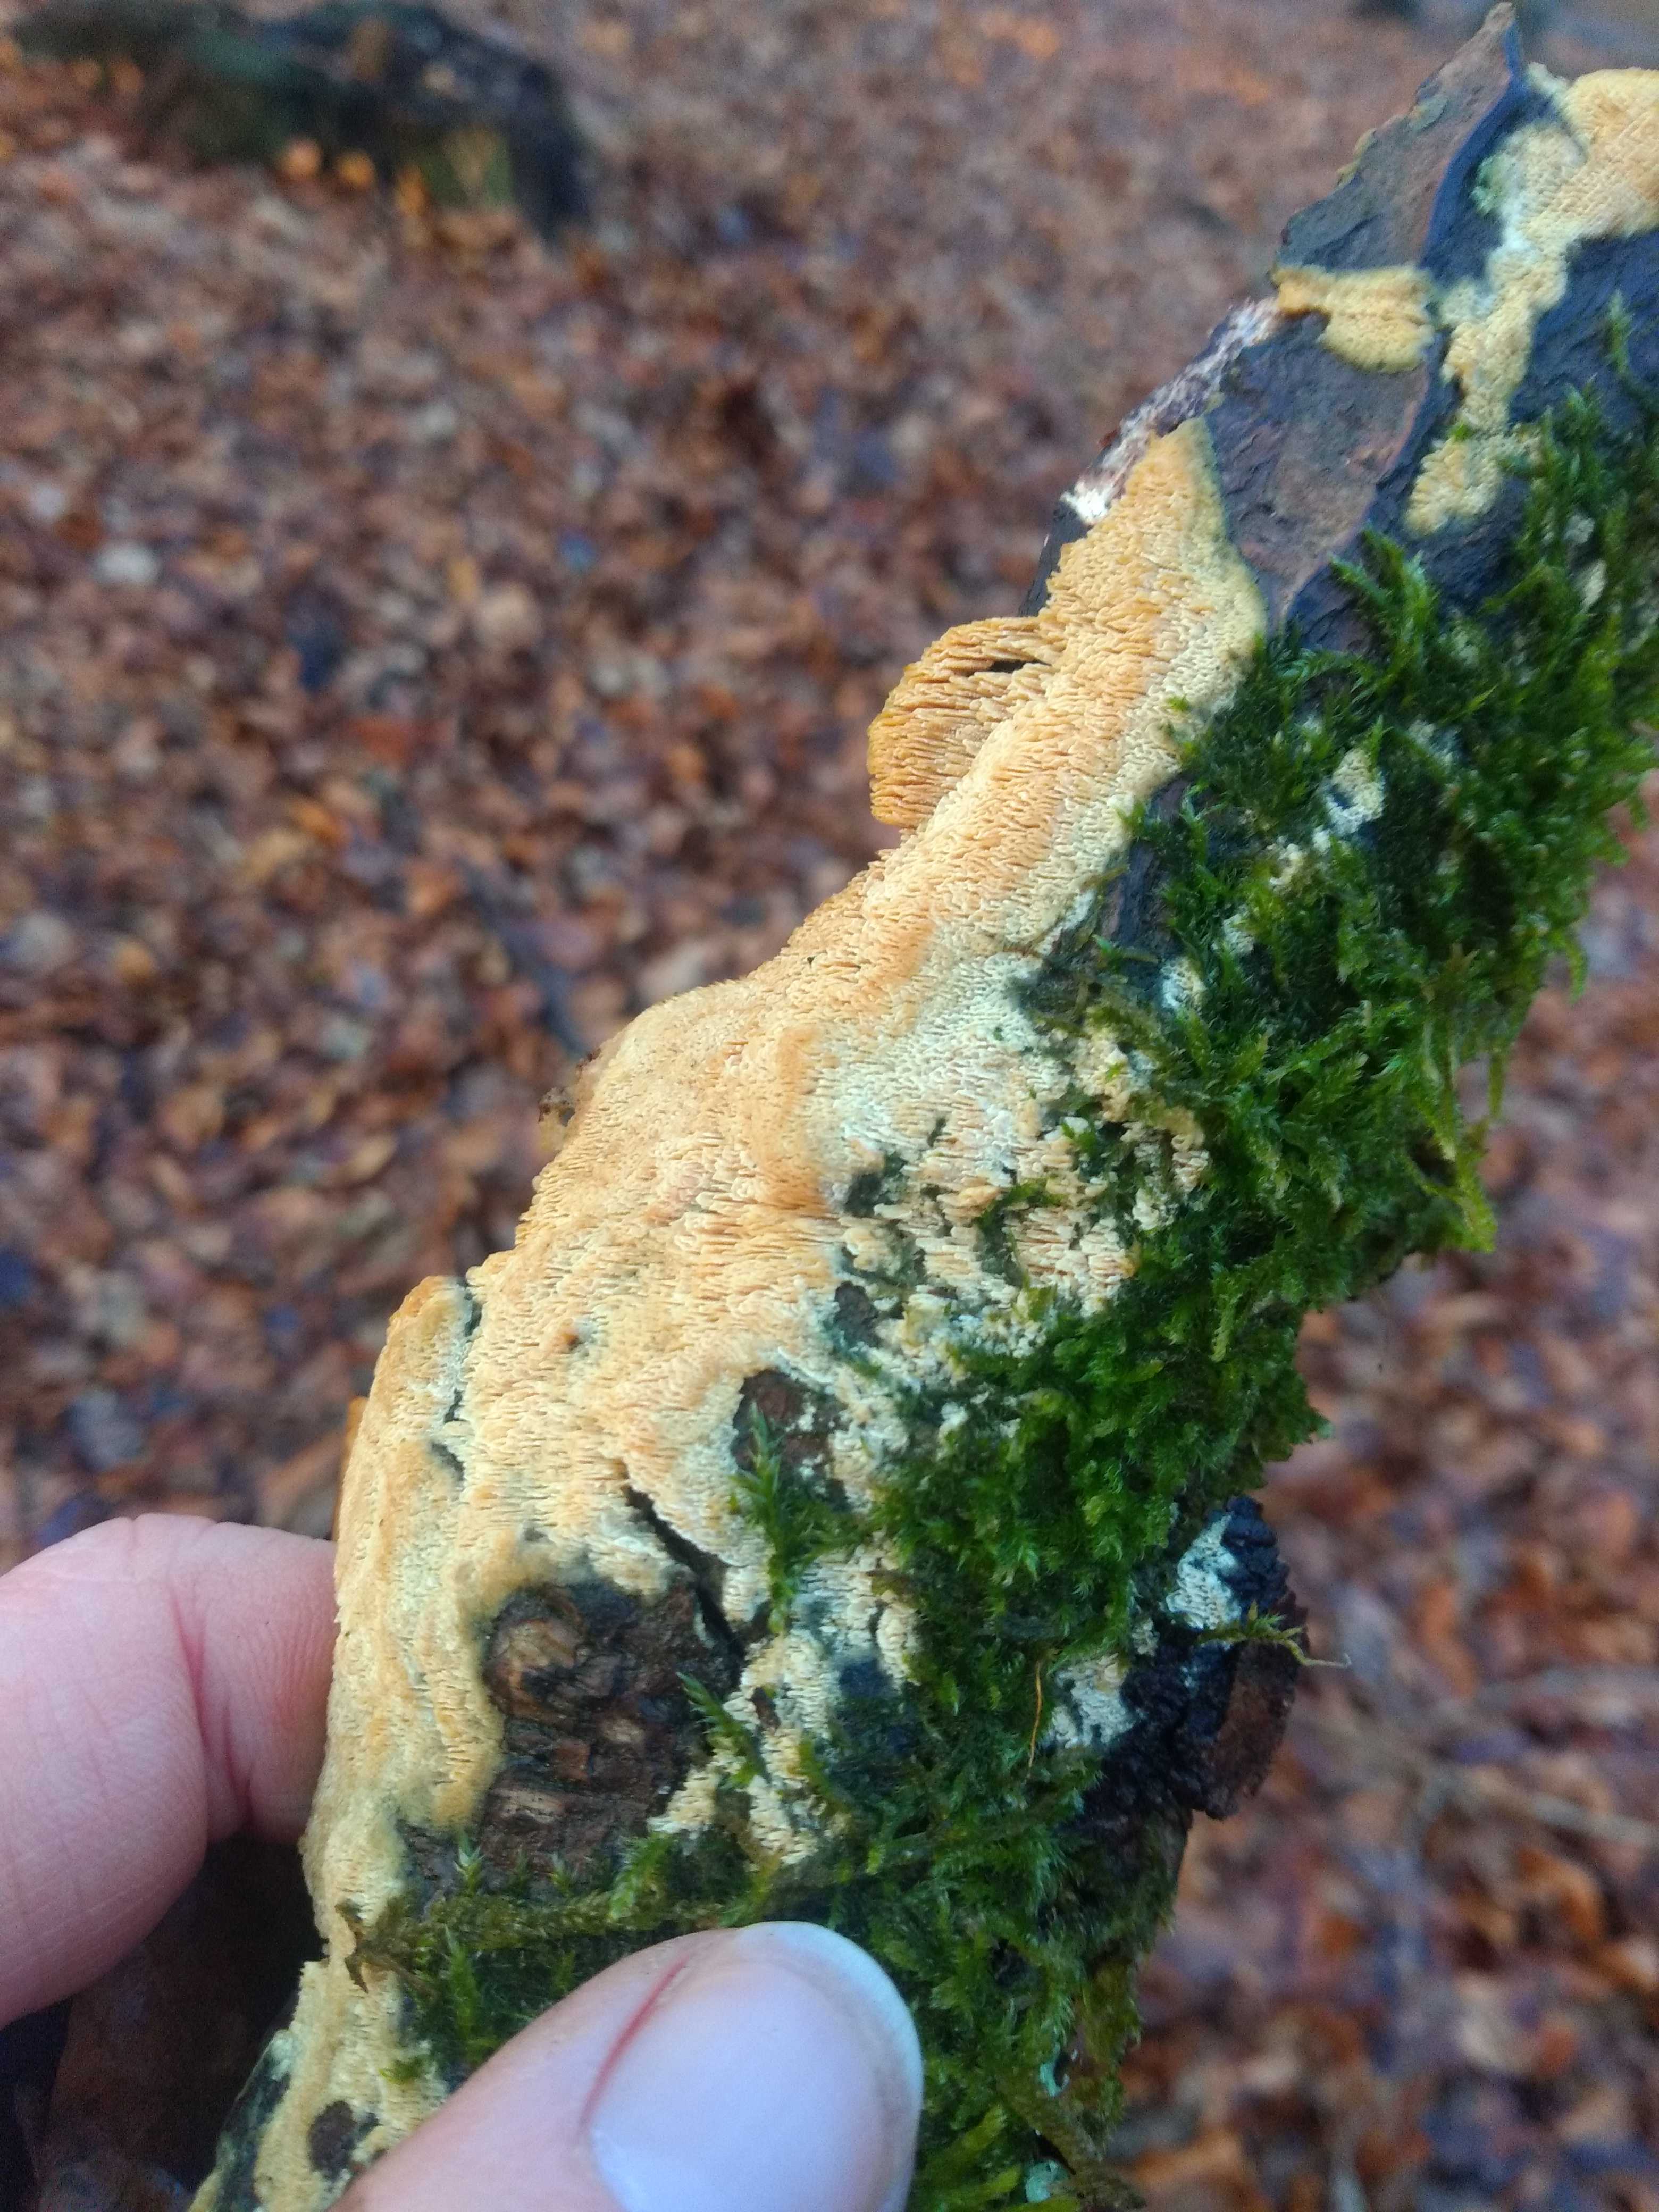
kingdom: Fungi
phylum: Basidiomycota
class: Agaricomycetes
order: Hymenochaetales
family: Schizoporaceae
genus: Xylodon
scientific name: Xylodon
